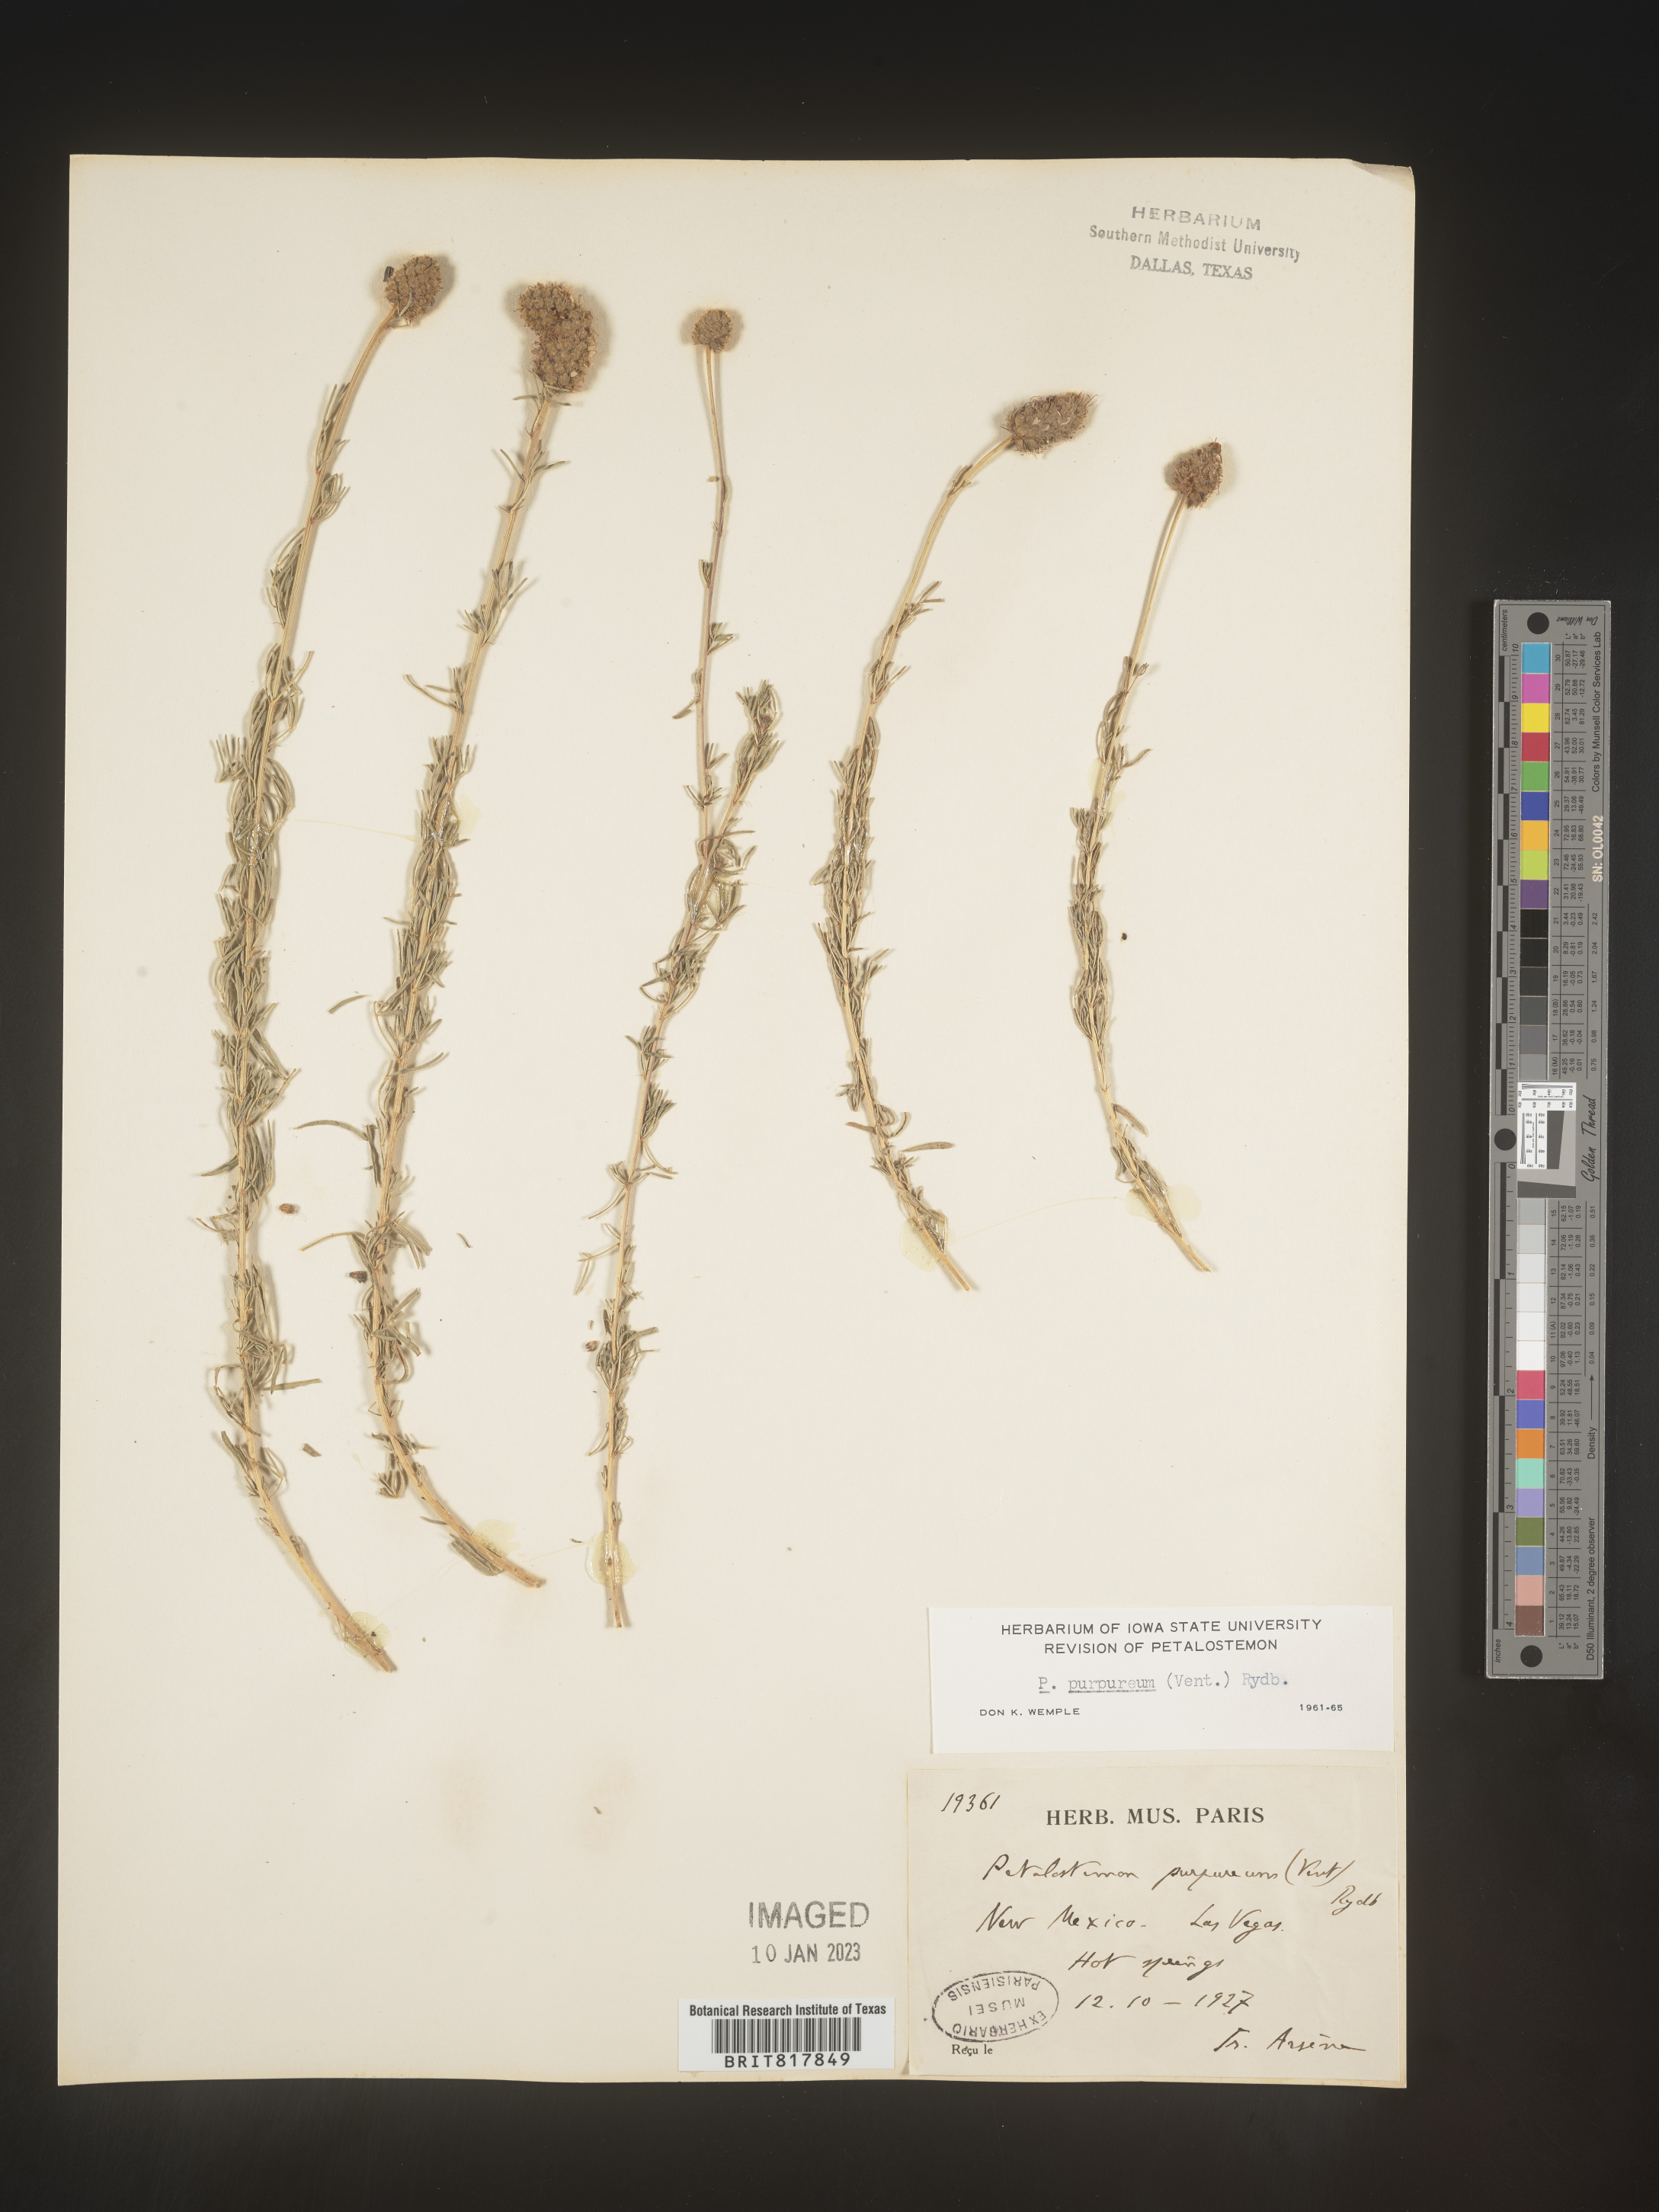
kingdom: Plantae
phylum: Tracheophyta
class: Magnoliopsida
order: Fabales
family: Fabaceae
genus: Dalea
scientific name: Dalea purpurea
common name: Purple prairie-clover
